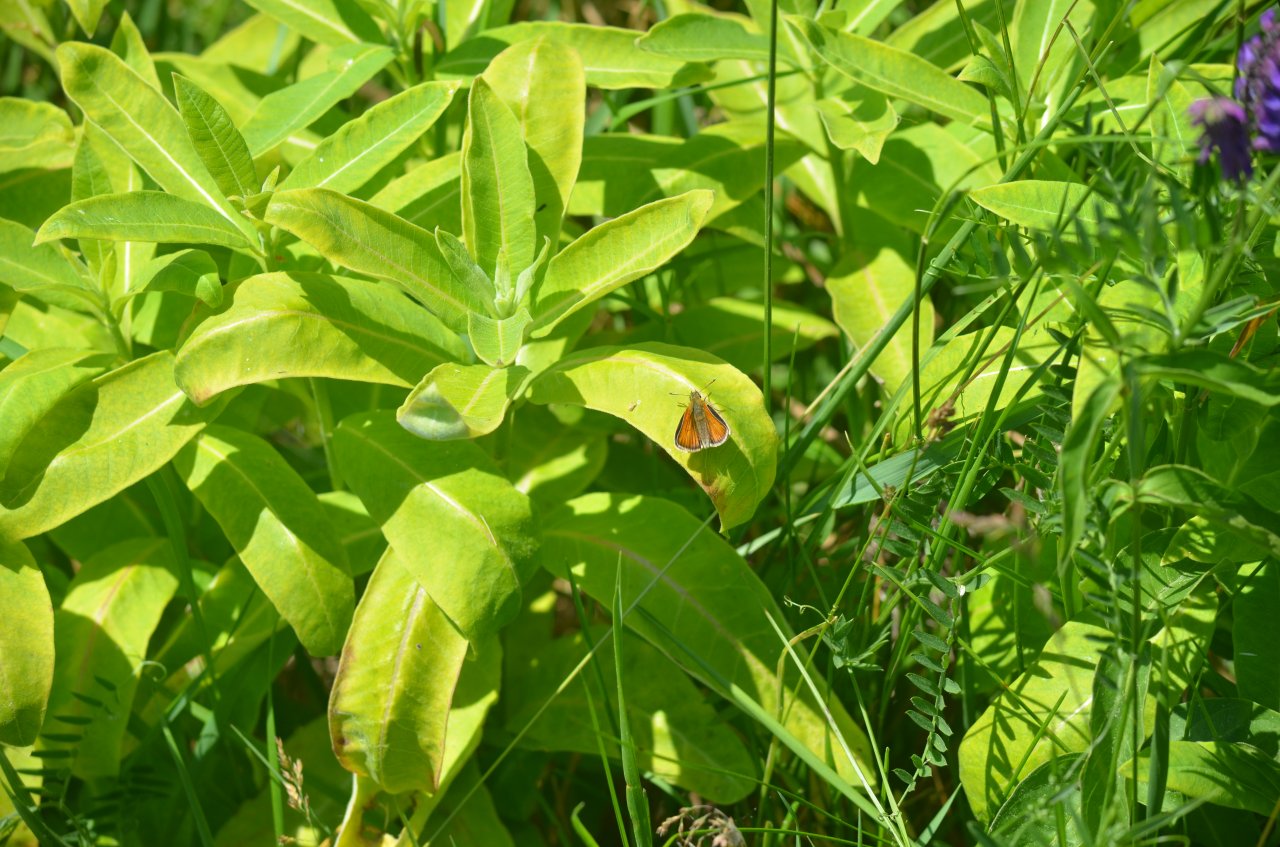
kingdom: Animalia
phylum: Arthropoda
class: Insecta
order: Lepidoptera
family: Hesperiidae
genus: Thymelicus
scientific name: Thymelicus lineola
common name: European Skipper
